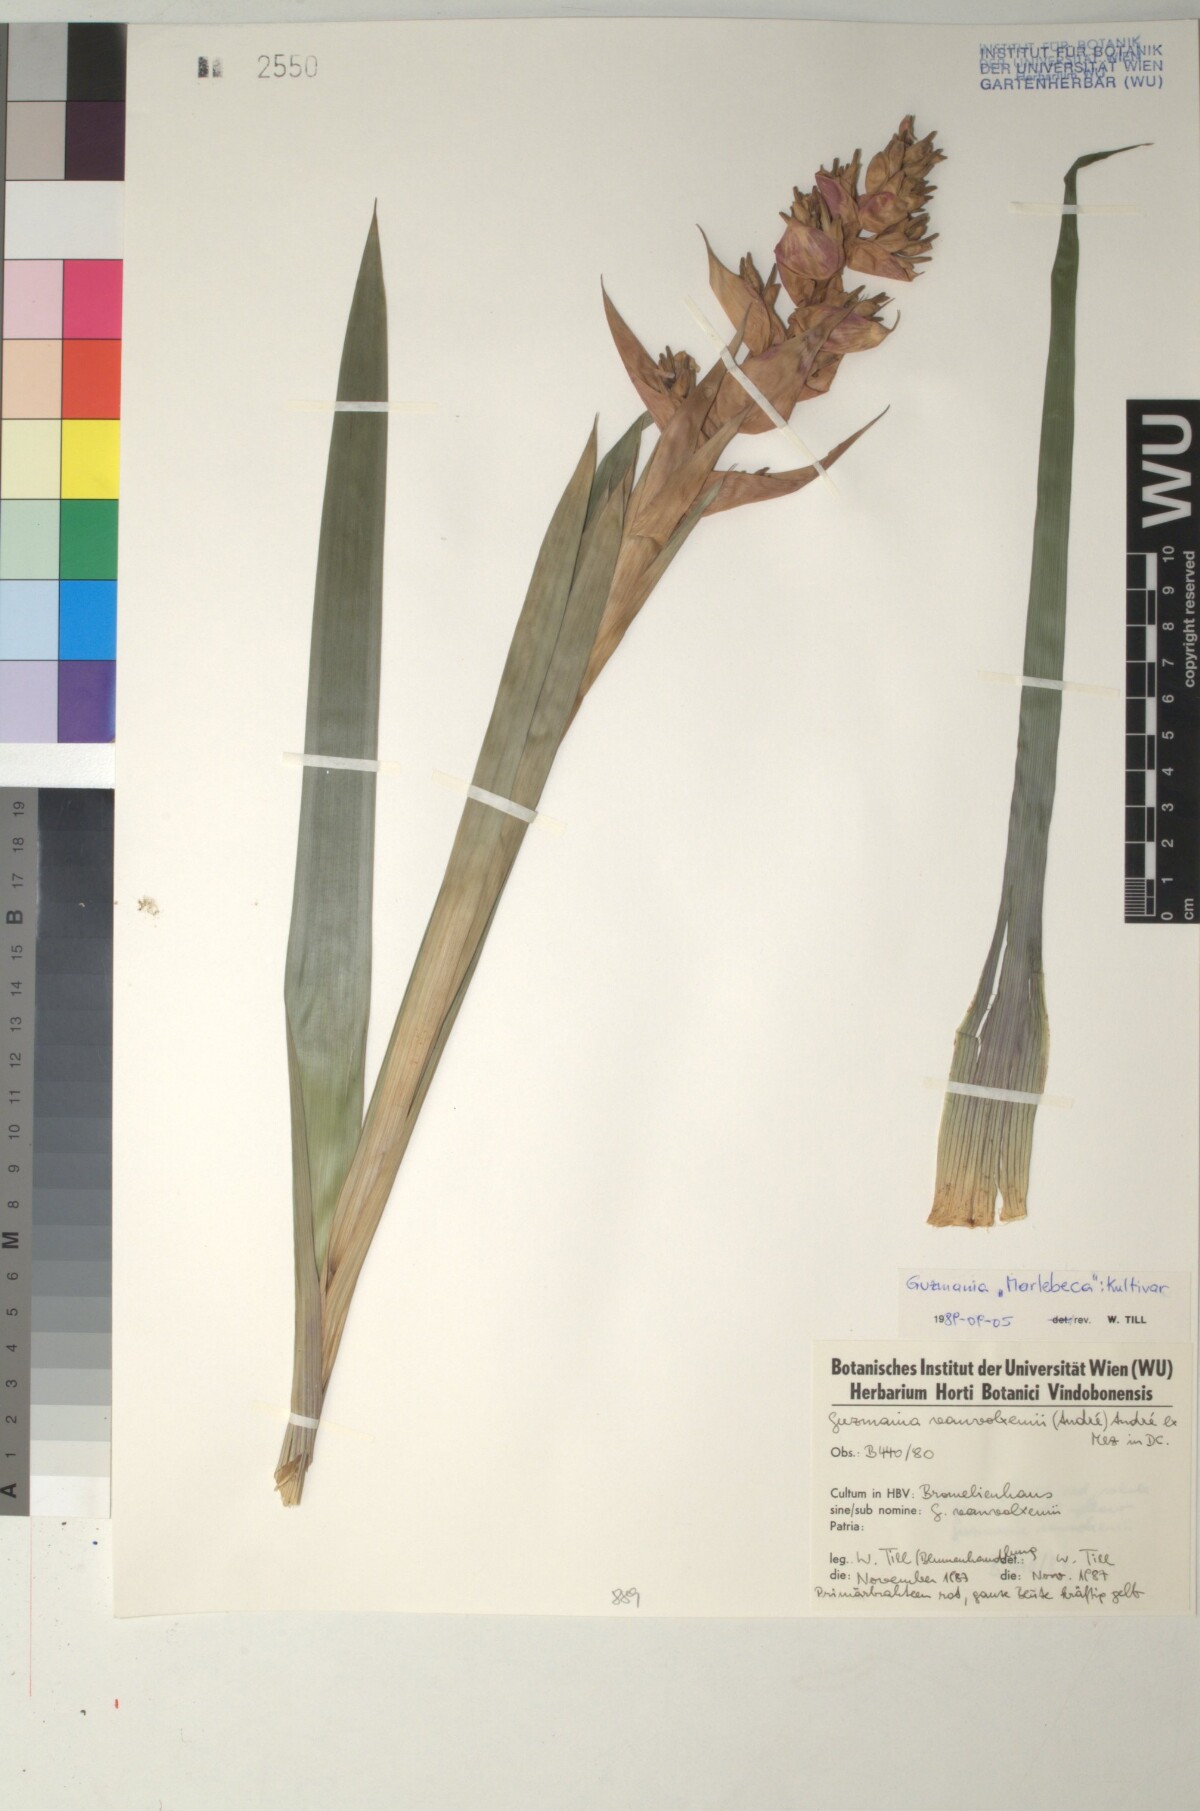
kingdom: Plantae
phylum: Tracheophyta
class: Liliopsida
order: Poales
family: Bromeliaceae
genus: Guzmania
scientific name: Guzmania vanvolxemii
